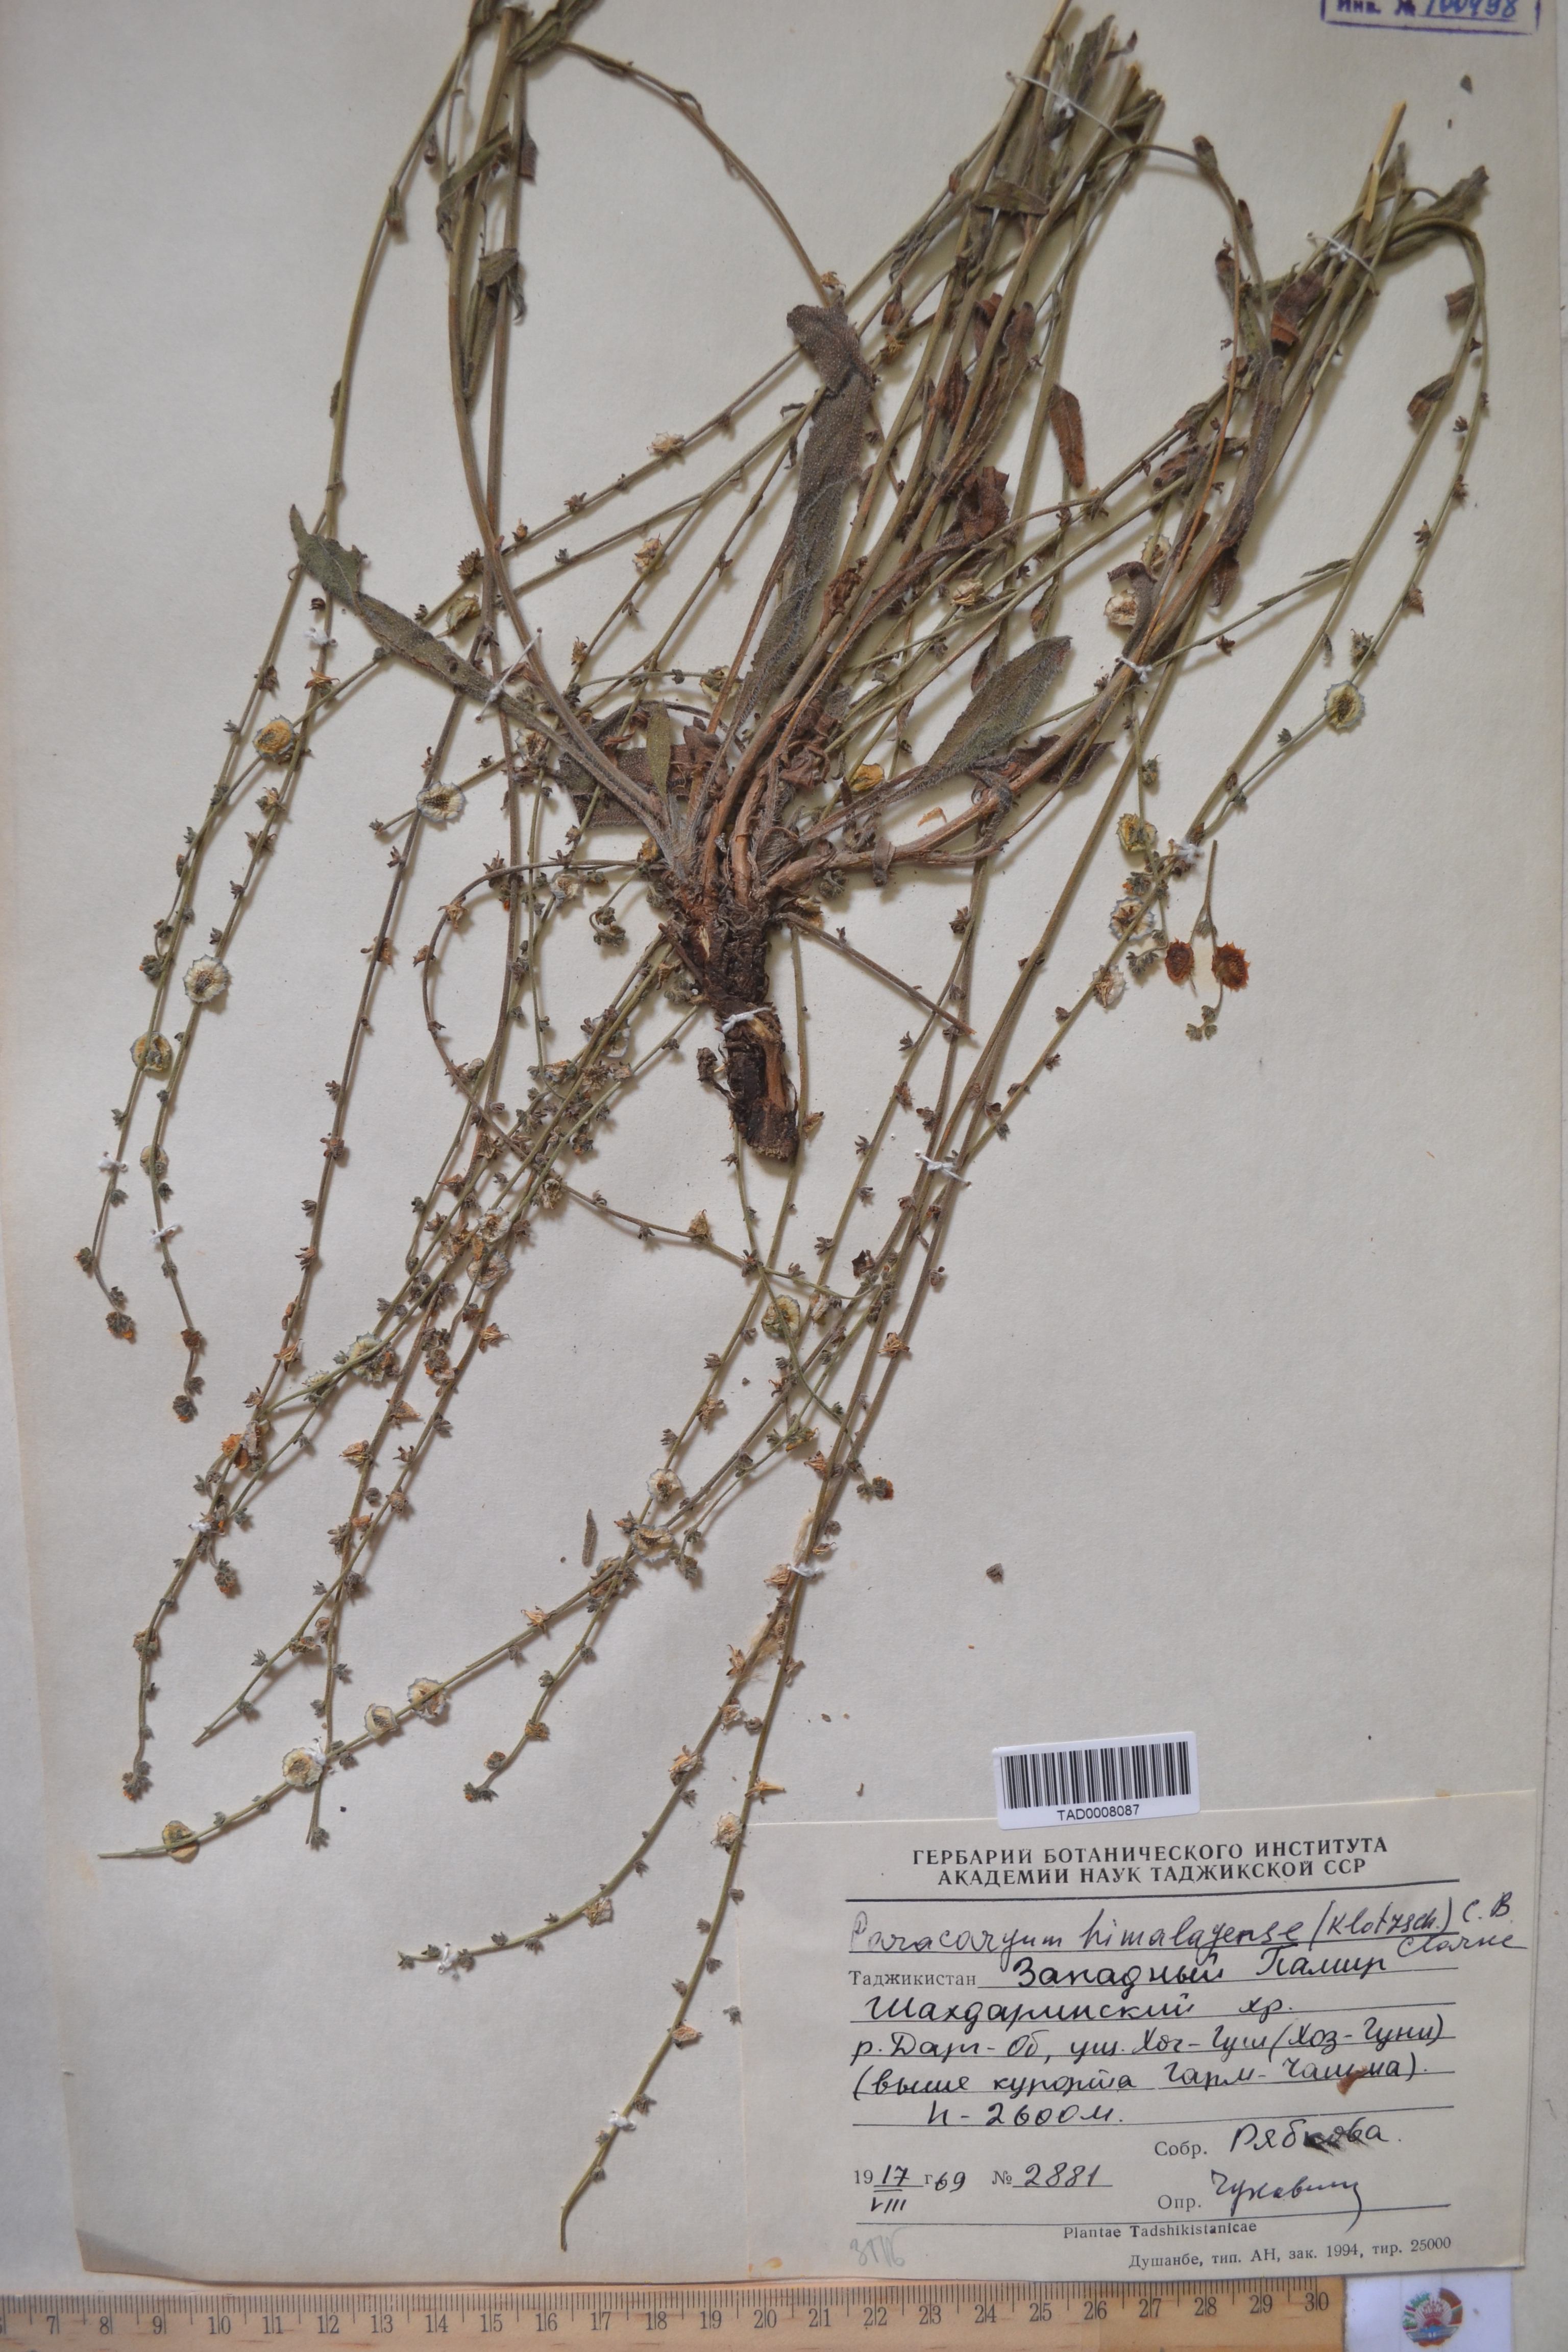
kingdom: Plantae
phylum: Tracheophyta
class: Magnoliopsida
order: Boraginales
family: Boraginaceae
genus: Paracaryum
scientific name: Paracaryum himalayense
